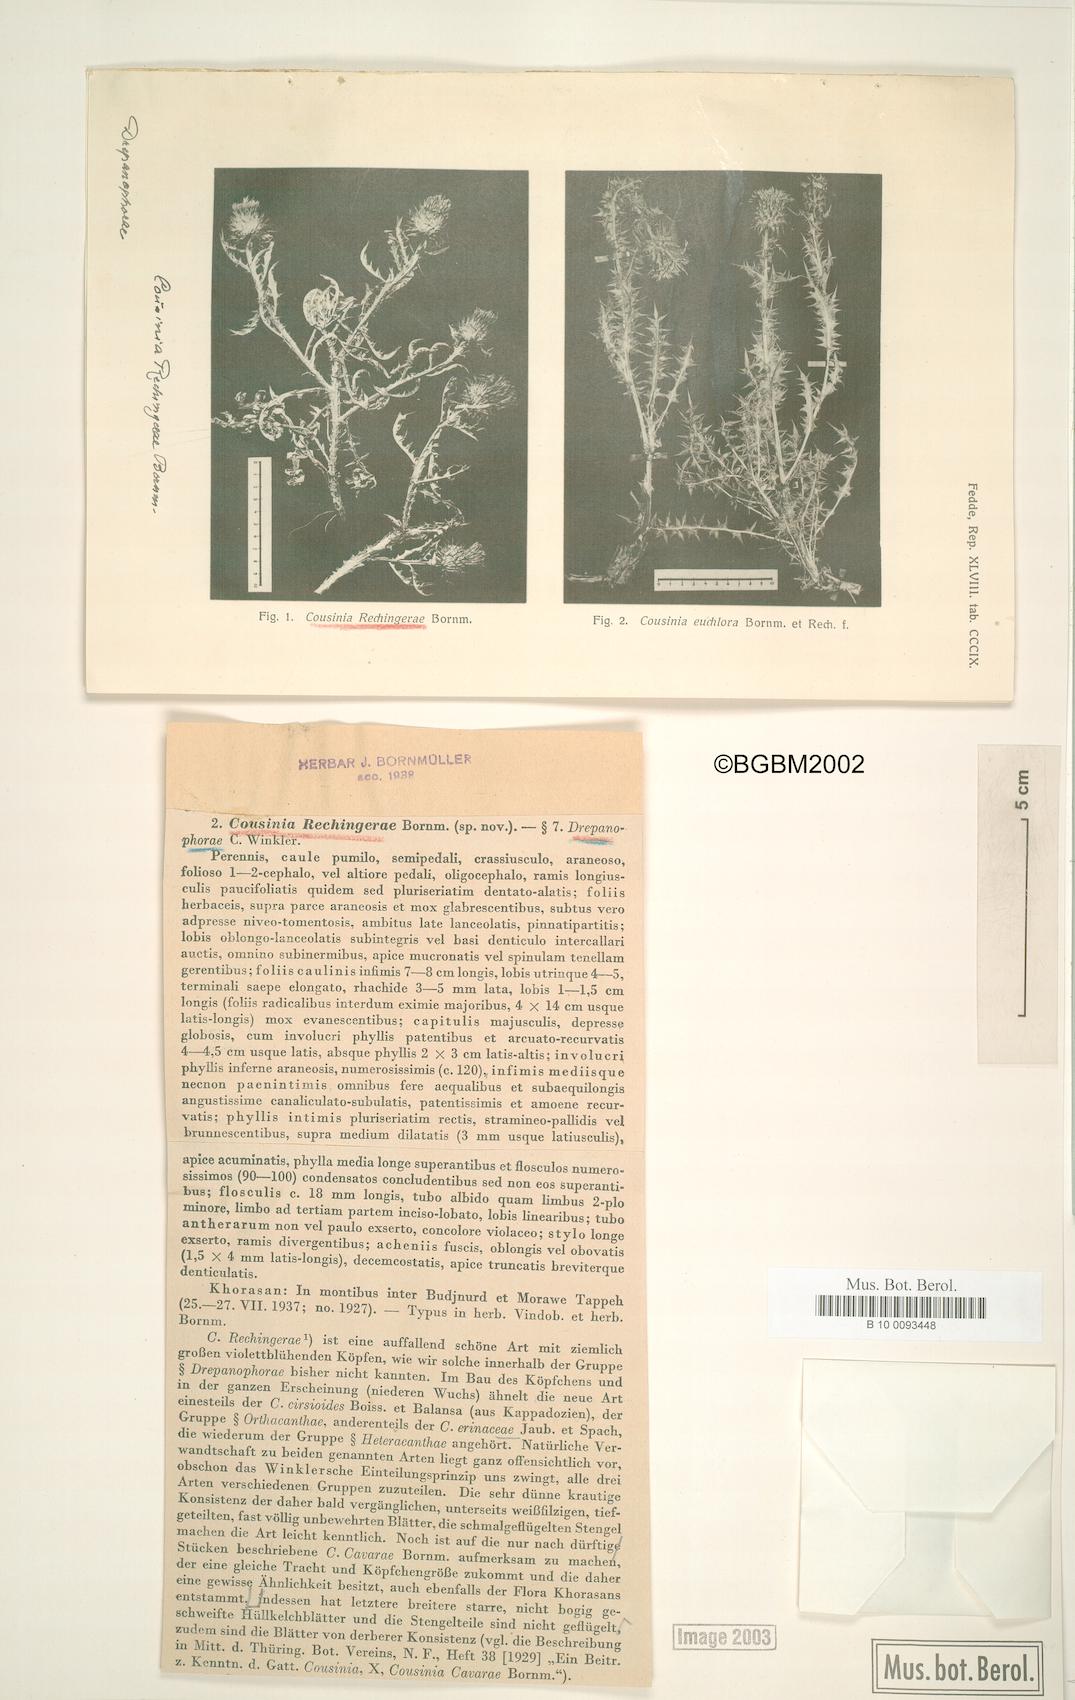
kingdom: Plantae
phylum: Tracheophyta
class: Magnoliopsida
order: Asterales
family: Asteraceae
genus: Cousinia
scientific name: Cousinia rechingerae
